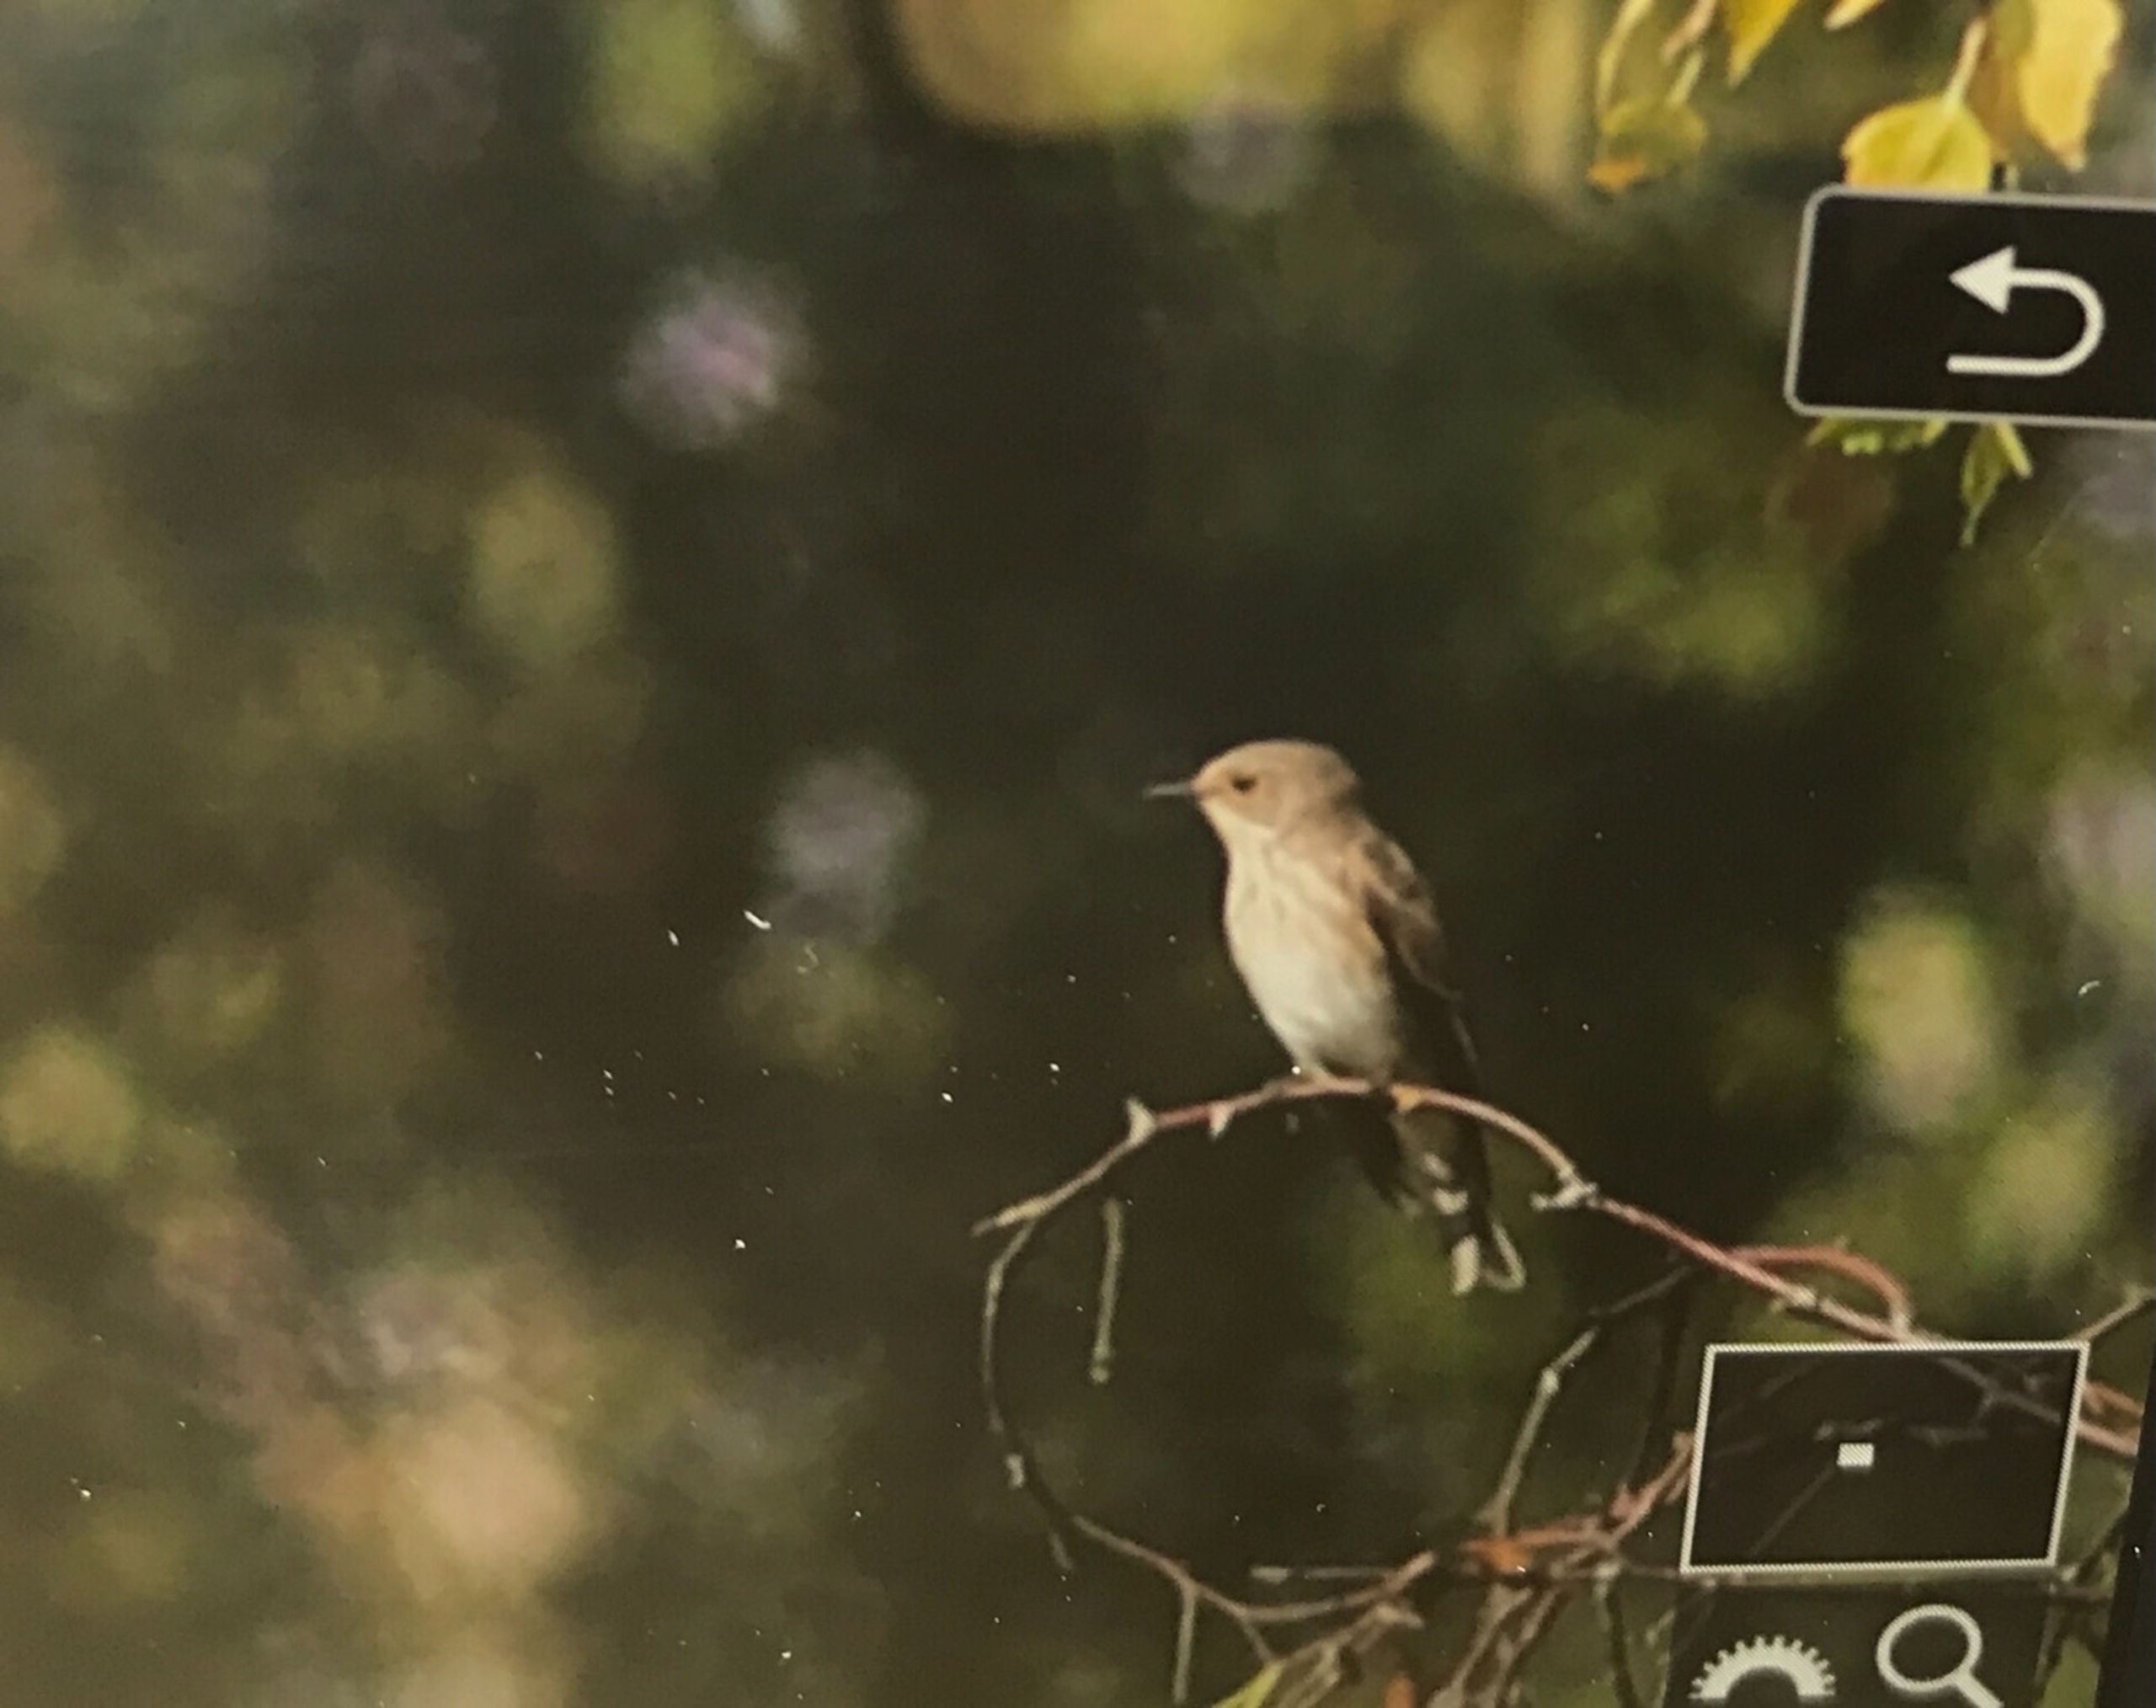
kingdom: Animalia
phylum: Chordata
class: Aves
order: Passeriformes
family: Muscicapidae
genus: Muscicapa
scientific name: Muscicapa striata
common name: Grå fluesnapper
